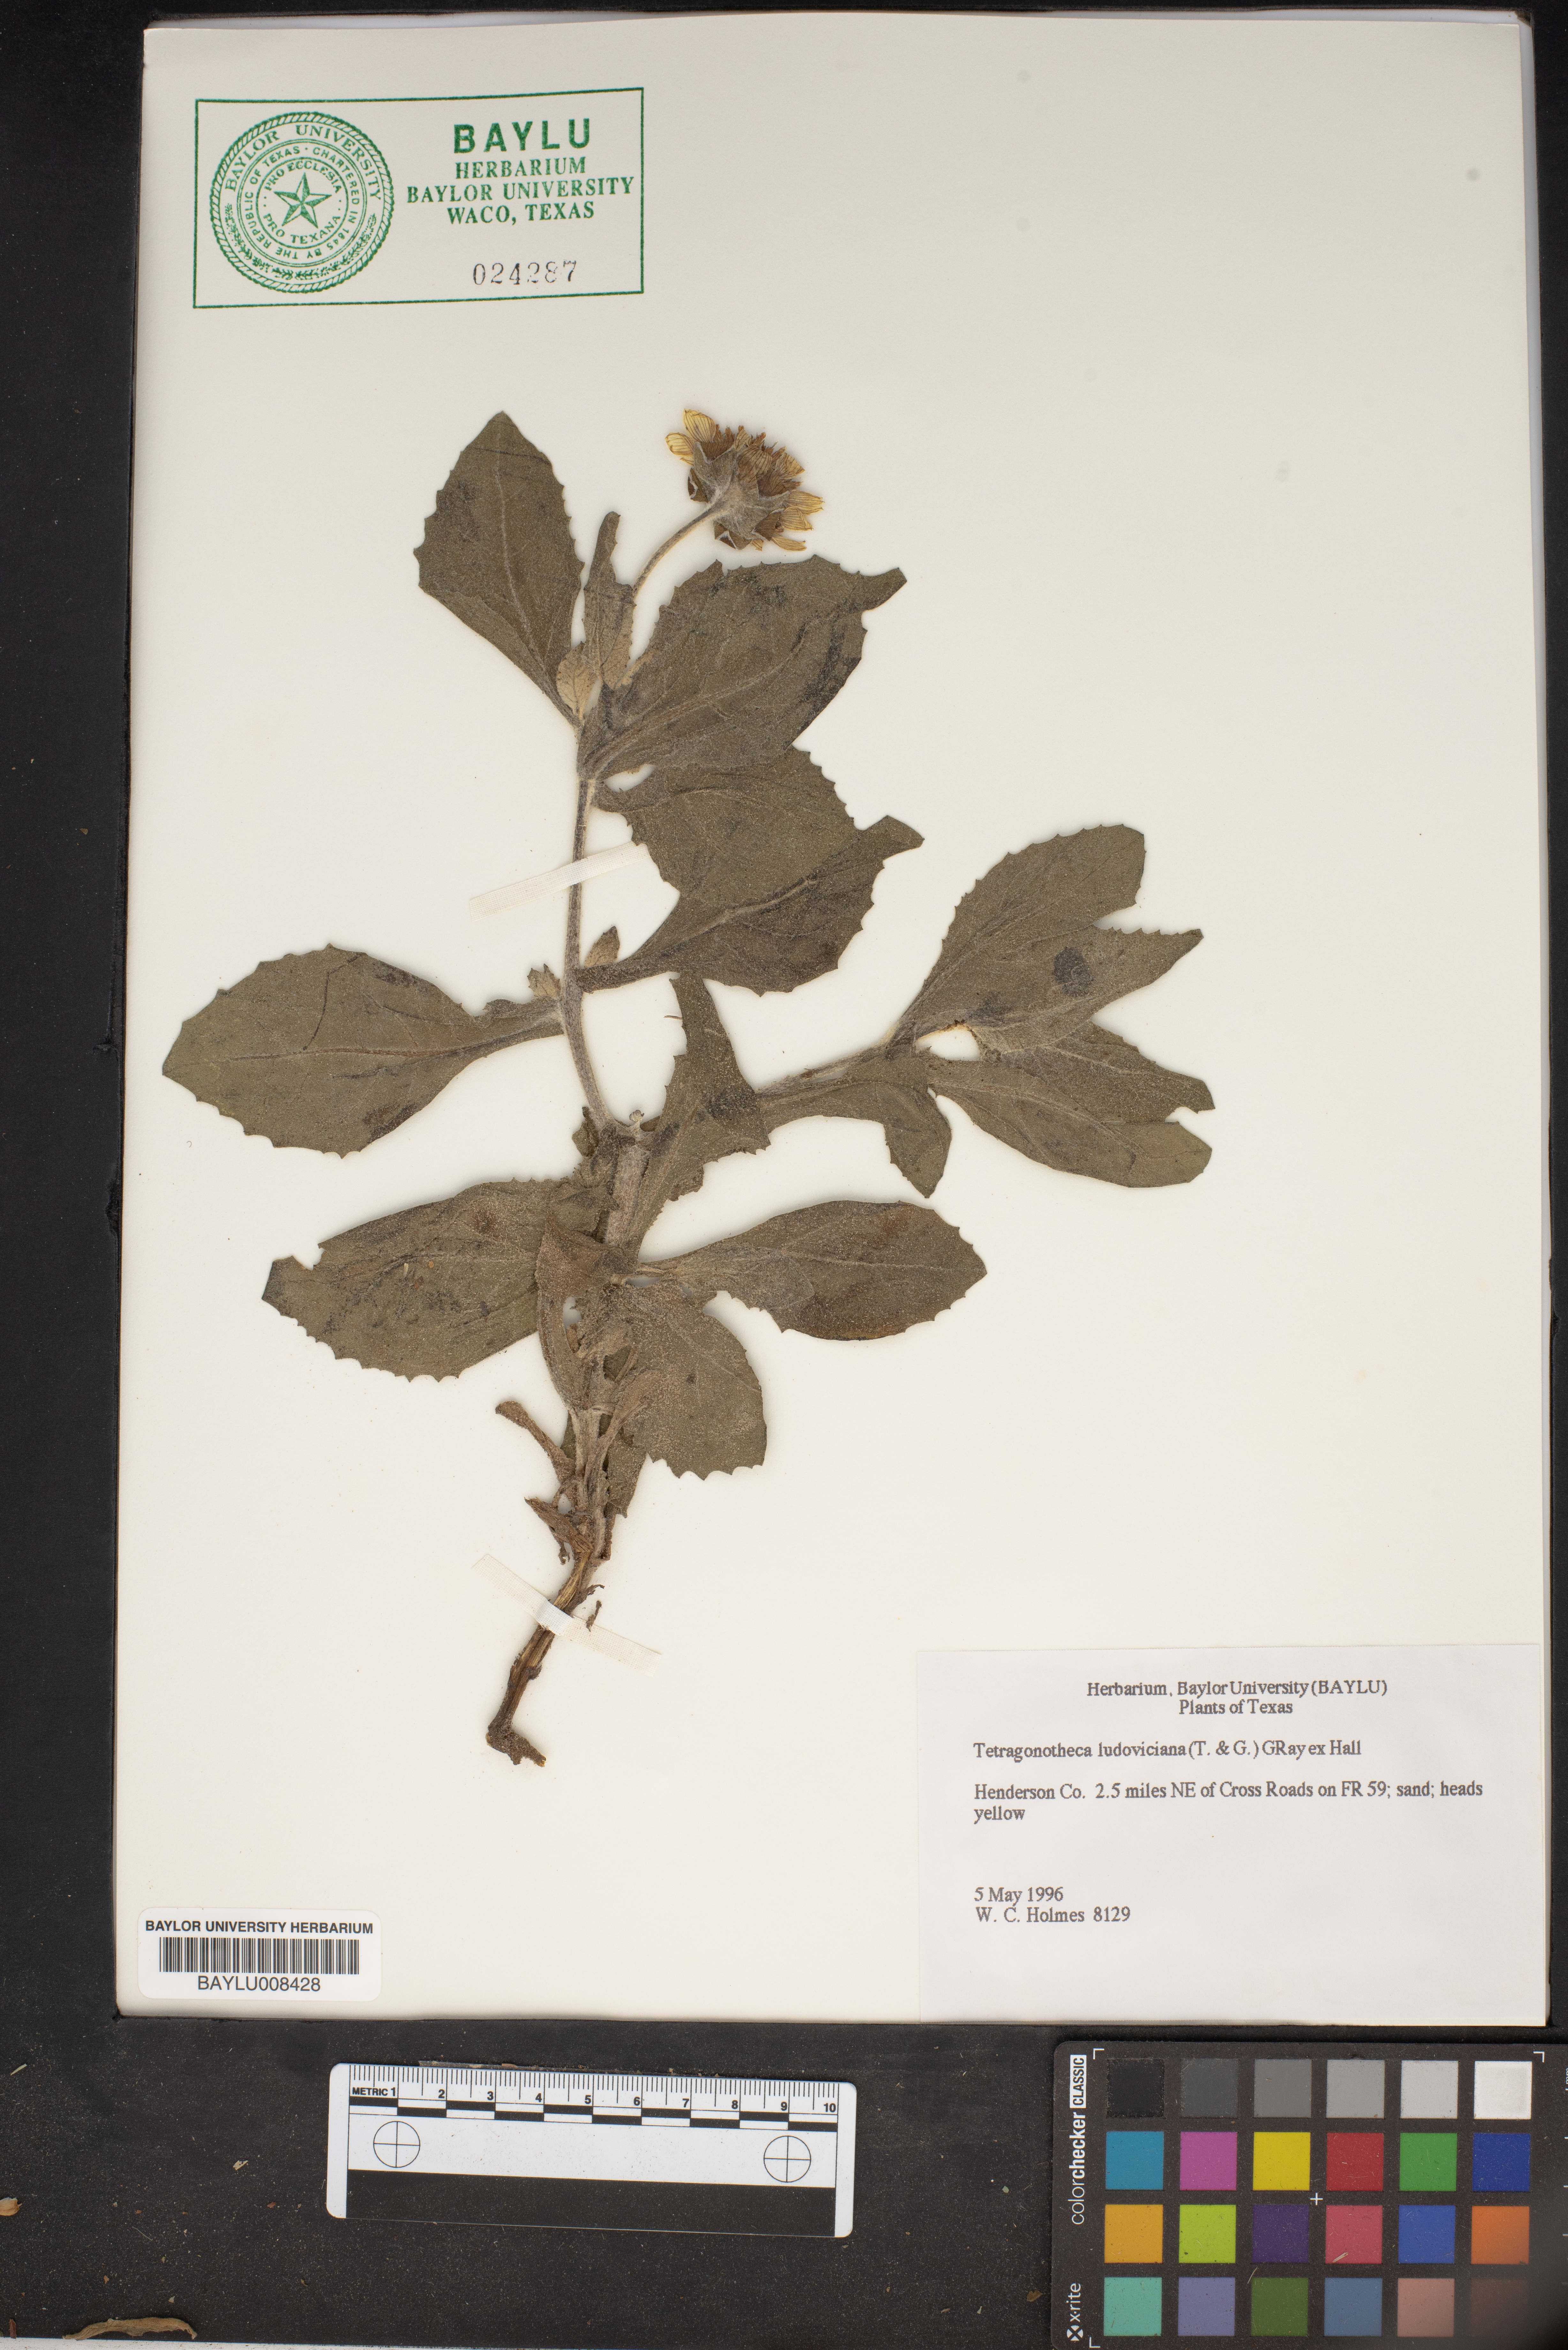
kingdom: Plantae
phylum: Tracheophyta
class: Magnoliopsida
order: Asterales
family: Asteraceae
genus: Tetragonotheca
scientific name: Tetragonotheca ludoviciana
